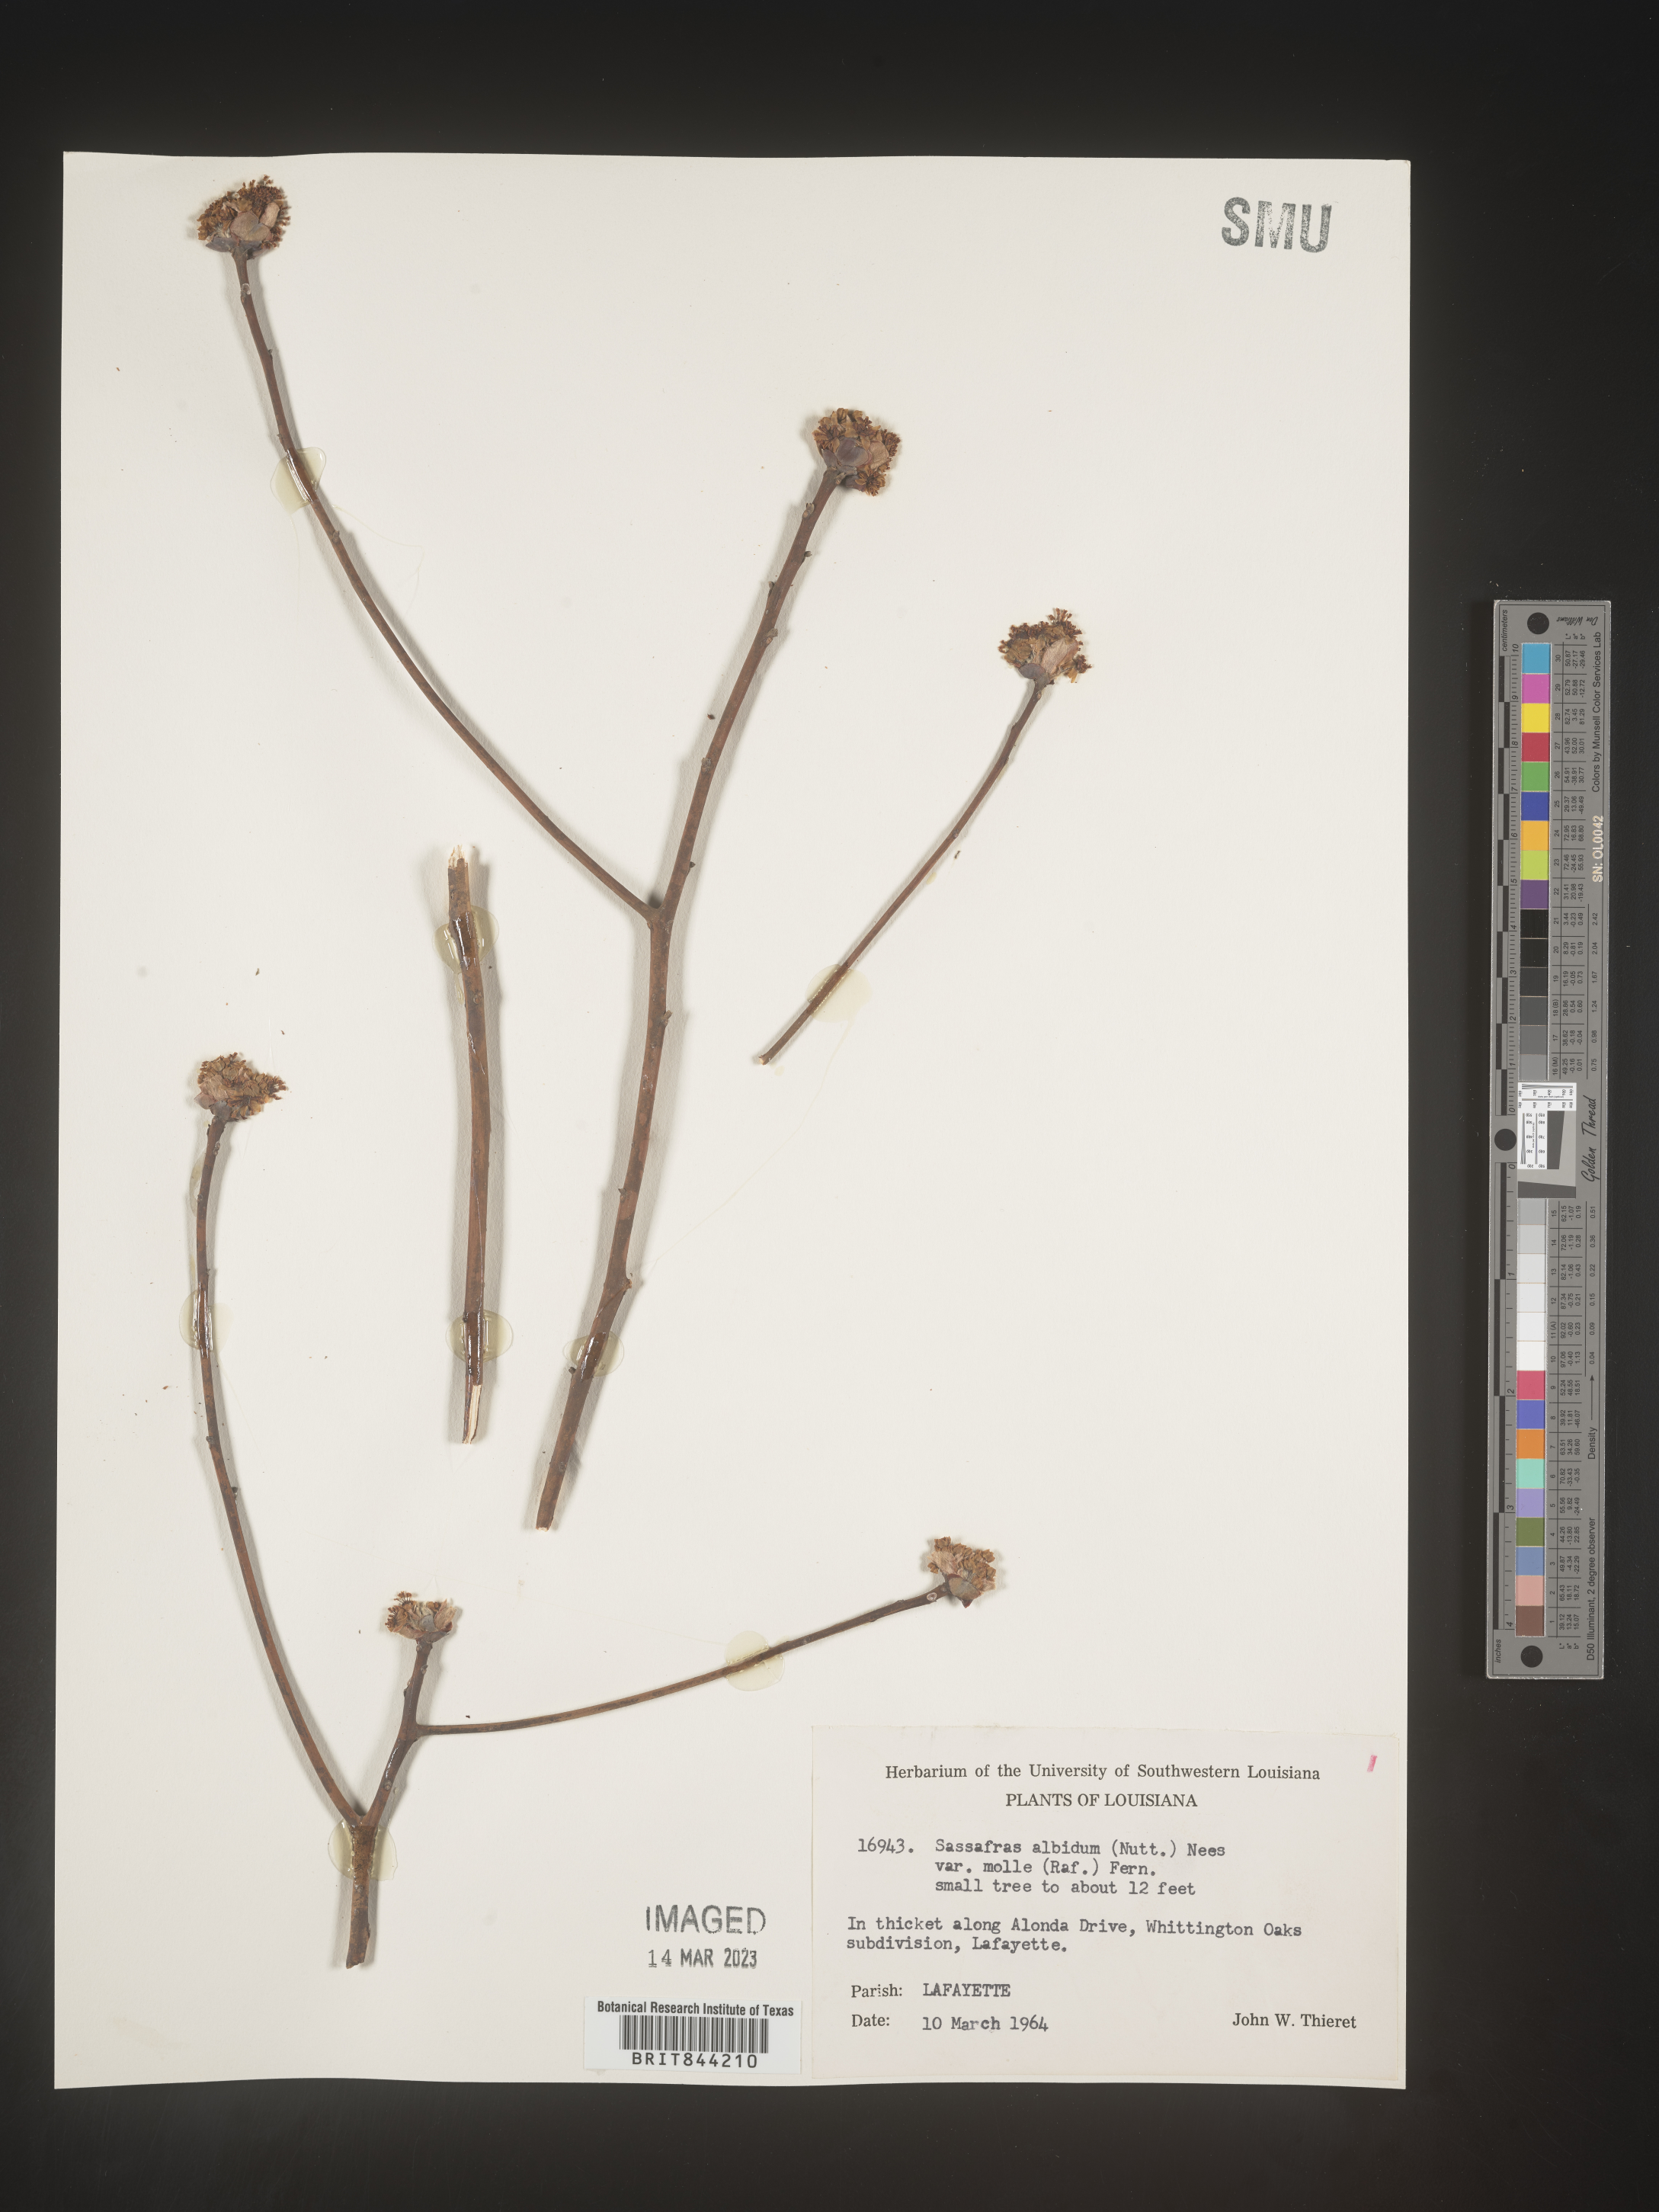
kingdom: Plantae
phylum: Tracheophyta
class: Magnoliopsida
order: Laurales
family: Lauraceae
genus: Sassafras
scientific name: Sassafras albidum
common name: Sassafras
